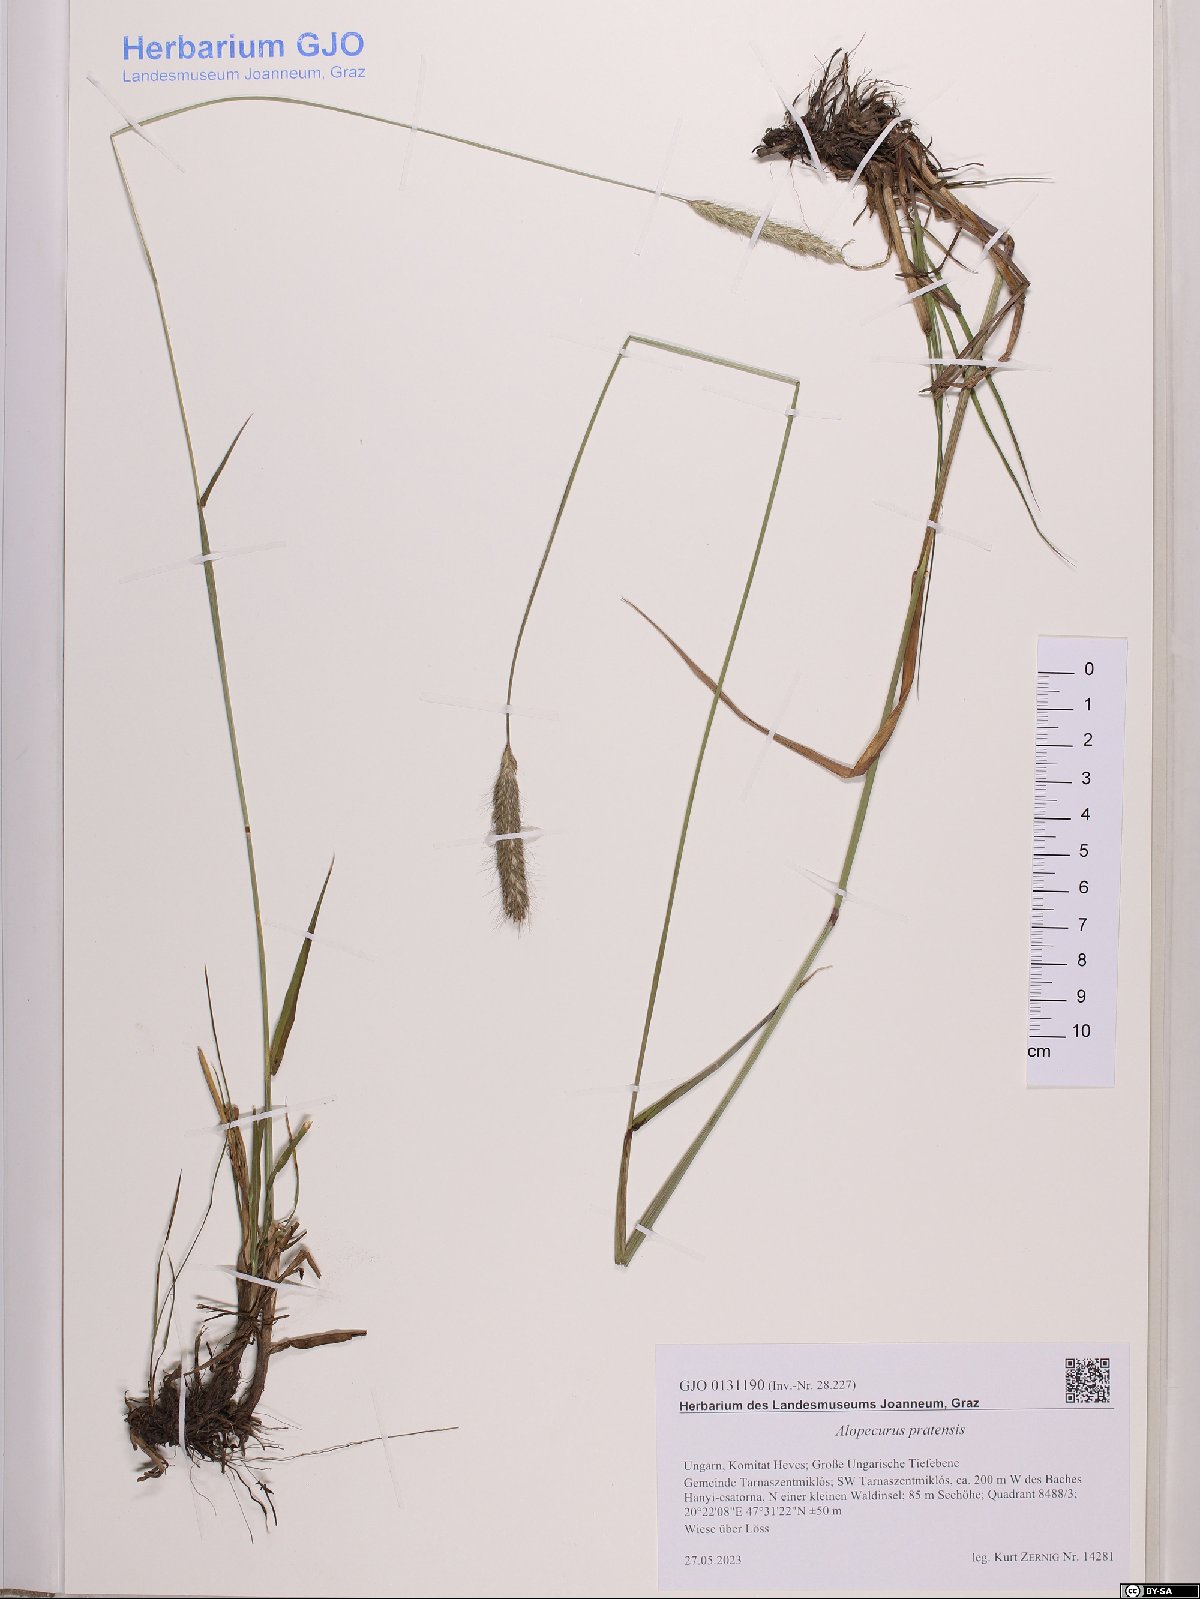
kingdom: Plantae
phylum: Tracheophyta
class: Liliopsida
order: Poales
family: Poaceae
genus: Alopecurus
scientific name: Alopecurus pratensis
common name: Meadow foxtail
